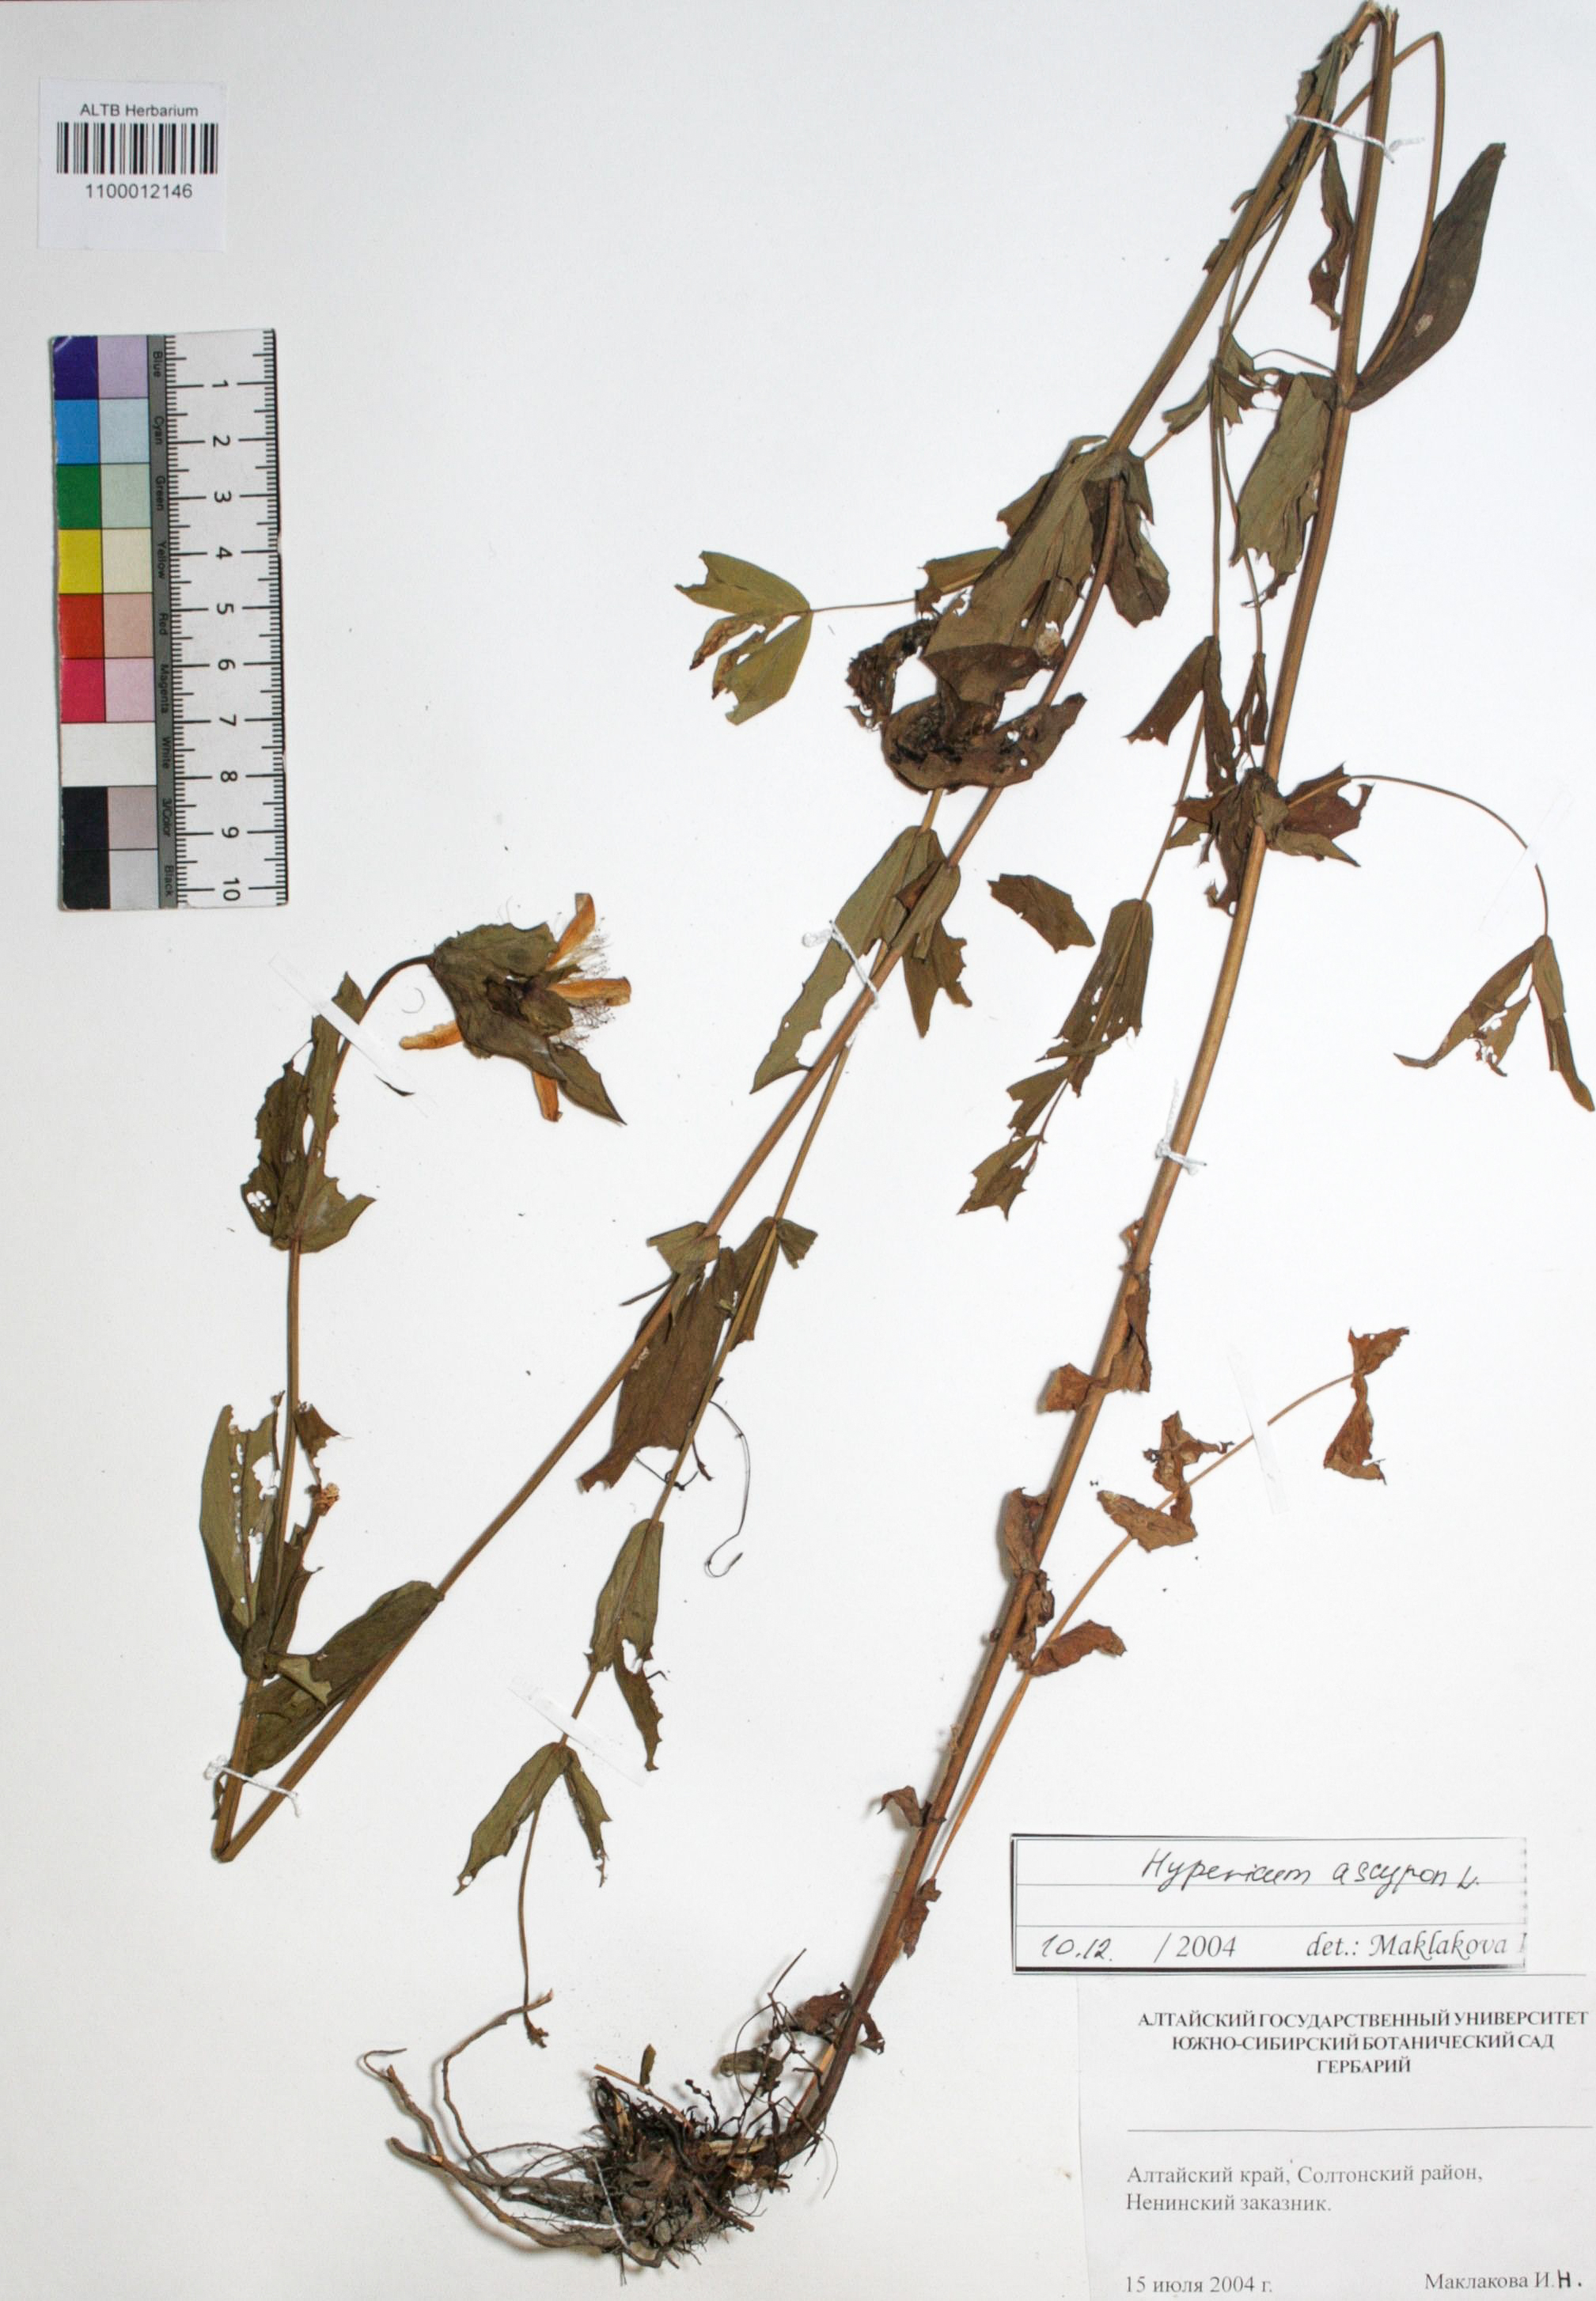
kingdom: Plantae
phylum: Tracheophyta
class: Magnoliopsida
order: Malpighiales
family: Hypericaceae
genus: Hypericum
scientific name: Hypericum ascyron
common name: Giant st. john's-wort
